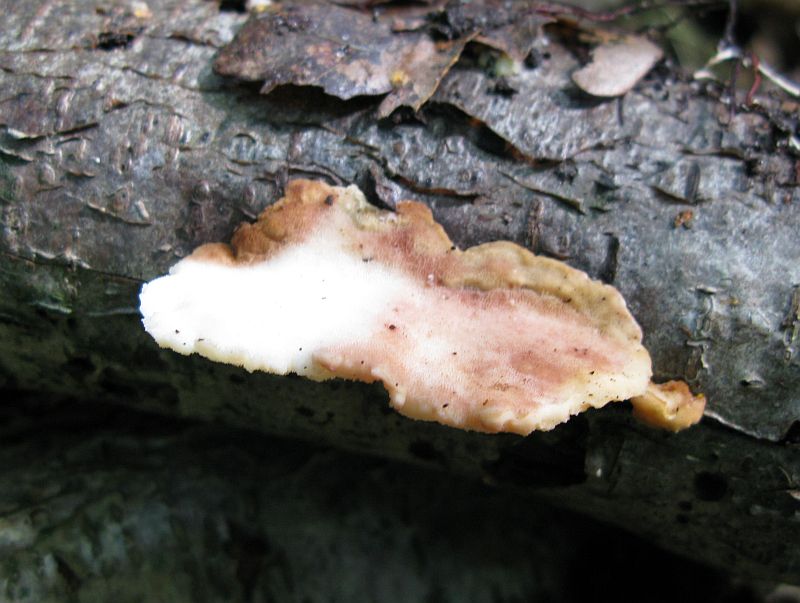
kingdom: Fungi
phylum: Basidiomycota
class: Agaricomycetes
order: Polyporales
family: Steccherinaceae
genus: Antrodiella
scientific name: Antrodiella serpula
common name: gulrandet elastikporesvamp
